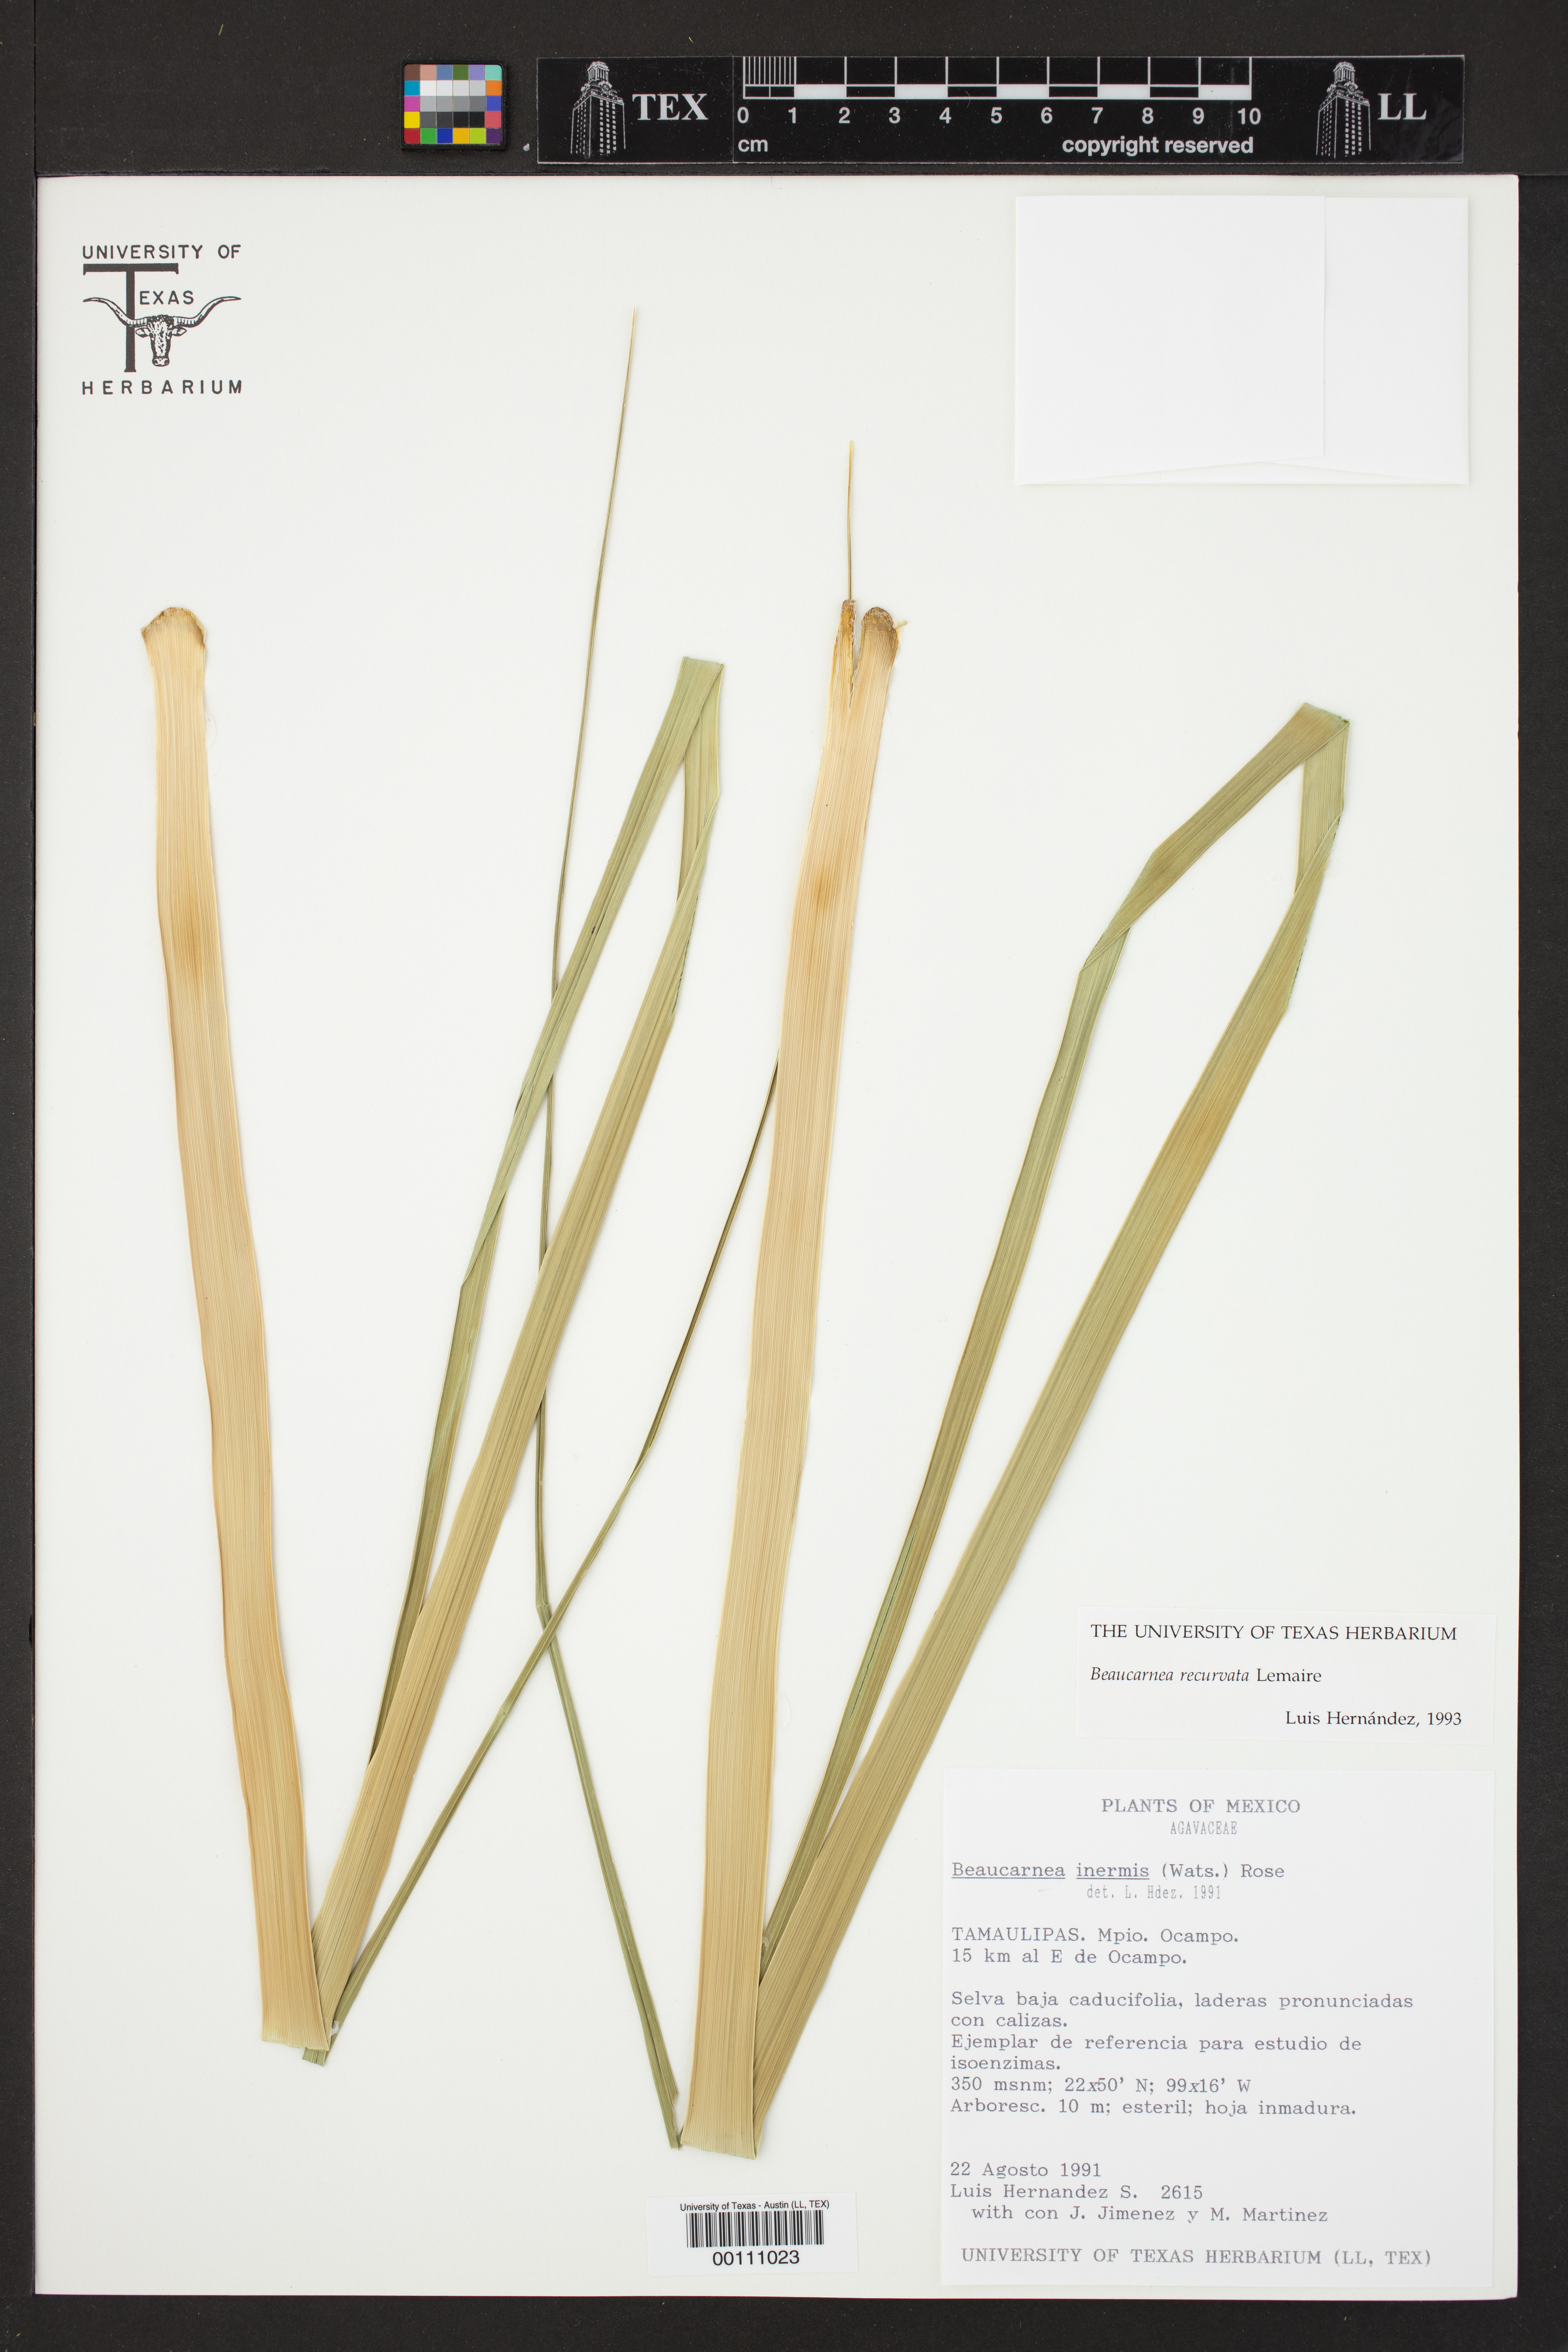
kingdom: Plantae
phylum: Tracheophyta
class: Liliopsida
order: Asparagales
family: Asparagaceae
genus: Beaucarnea
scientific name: Beaucarnea recurvata
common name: Stripy  ponytail
